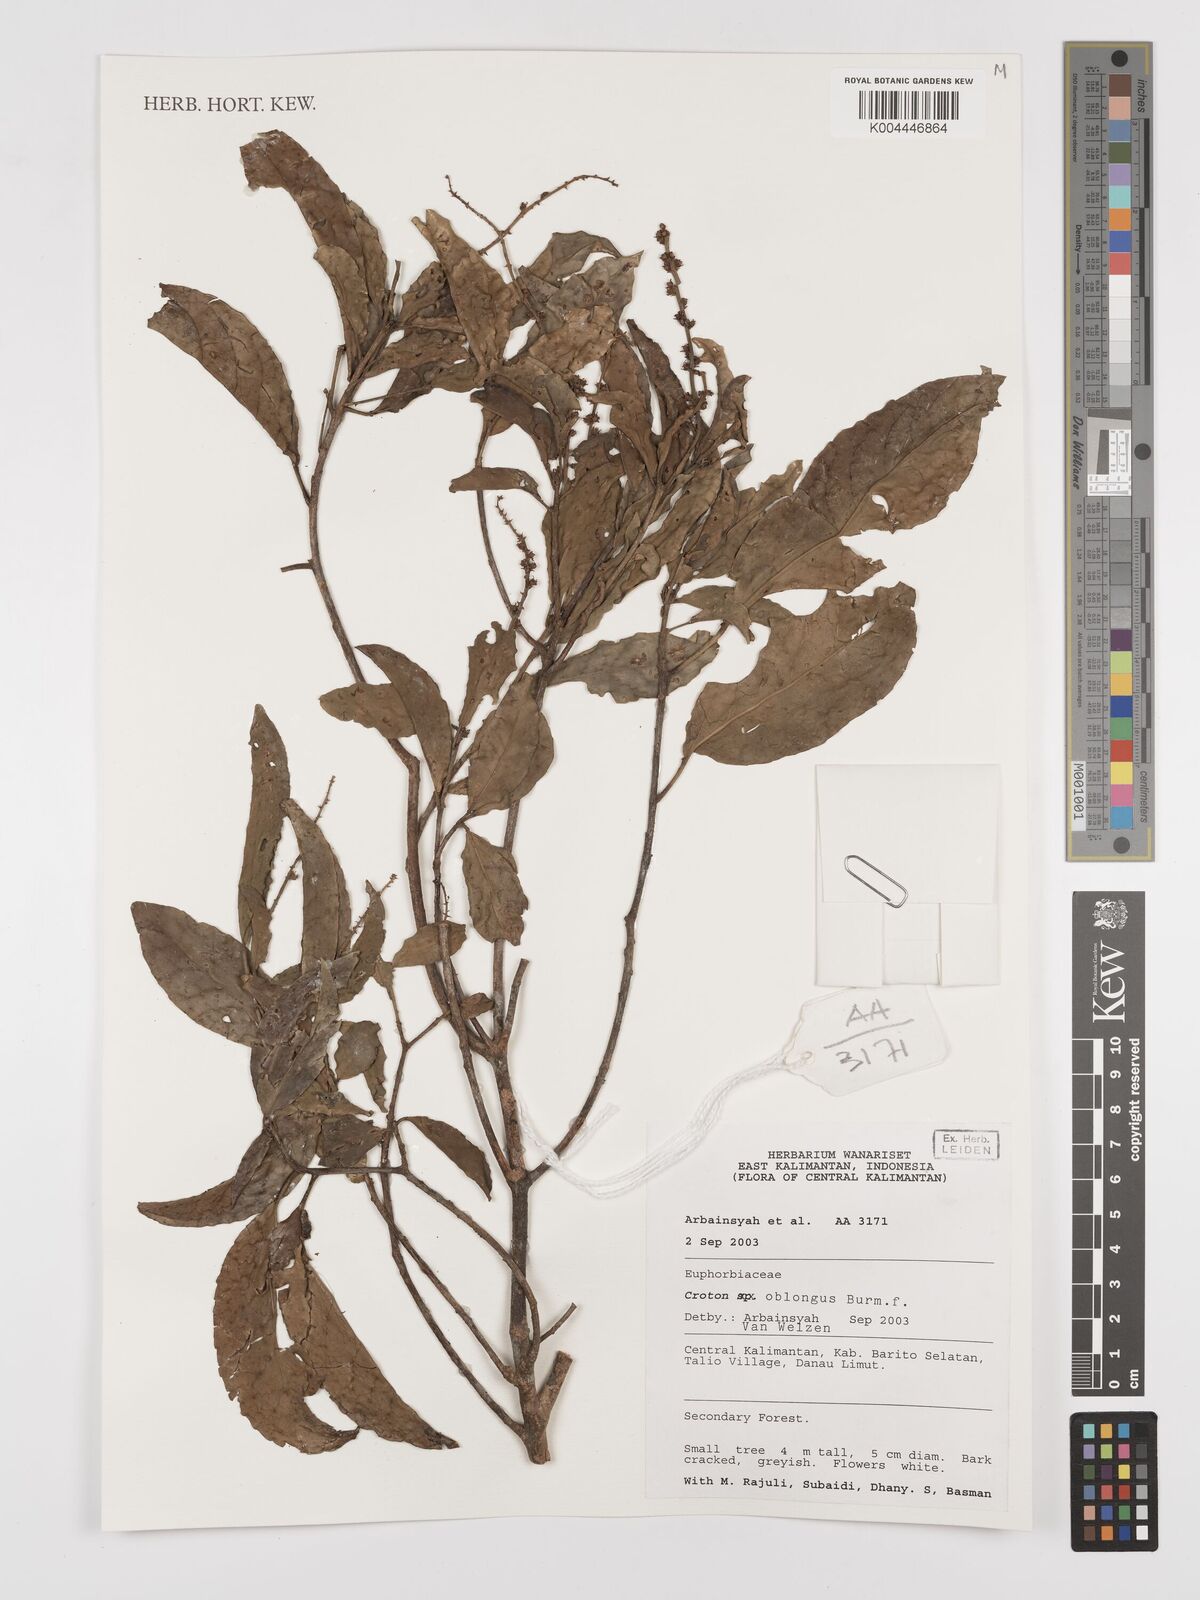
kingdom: Plantae
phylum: Tracheophyta
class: Magnoliopsida
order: Malpighiales
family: Euphorbiaceae
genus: Croton
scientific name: Croton oblongus
